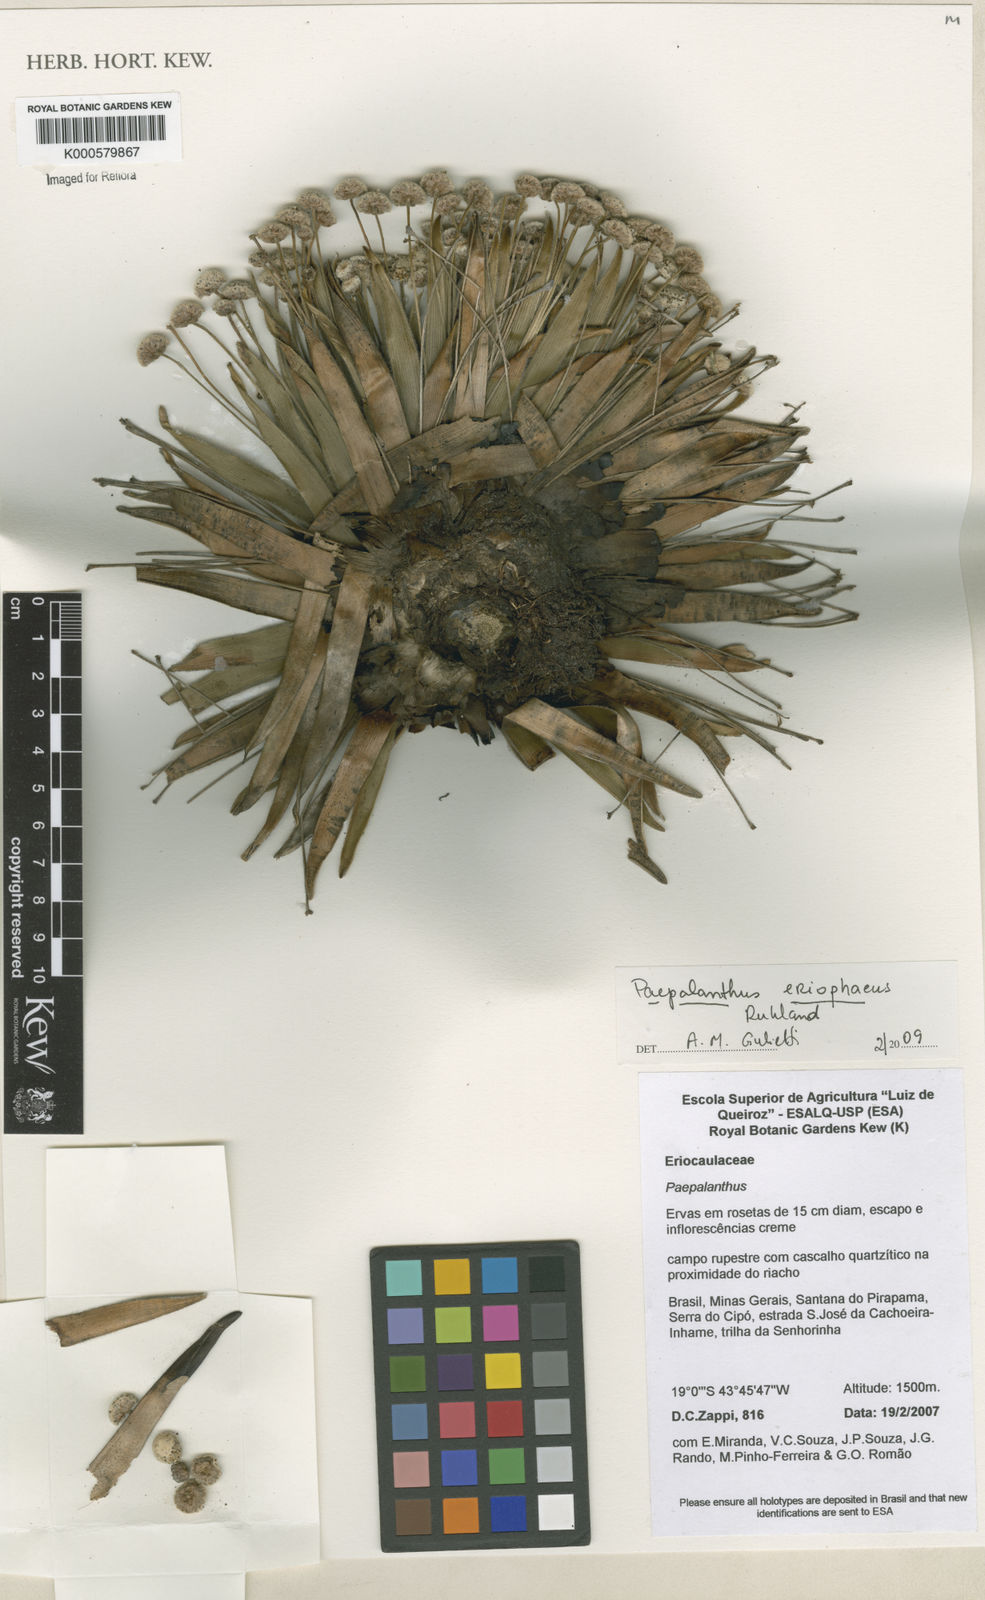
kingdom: Plantae
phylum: Tracheophyta
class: Liliopsida
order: Poales
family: Eriocaulaceae
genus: Paepalanthus
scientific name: Paepalanthus eriophaeus
